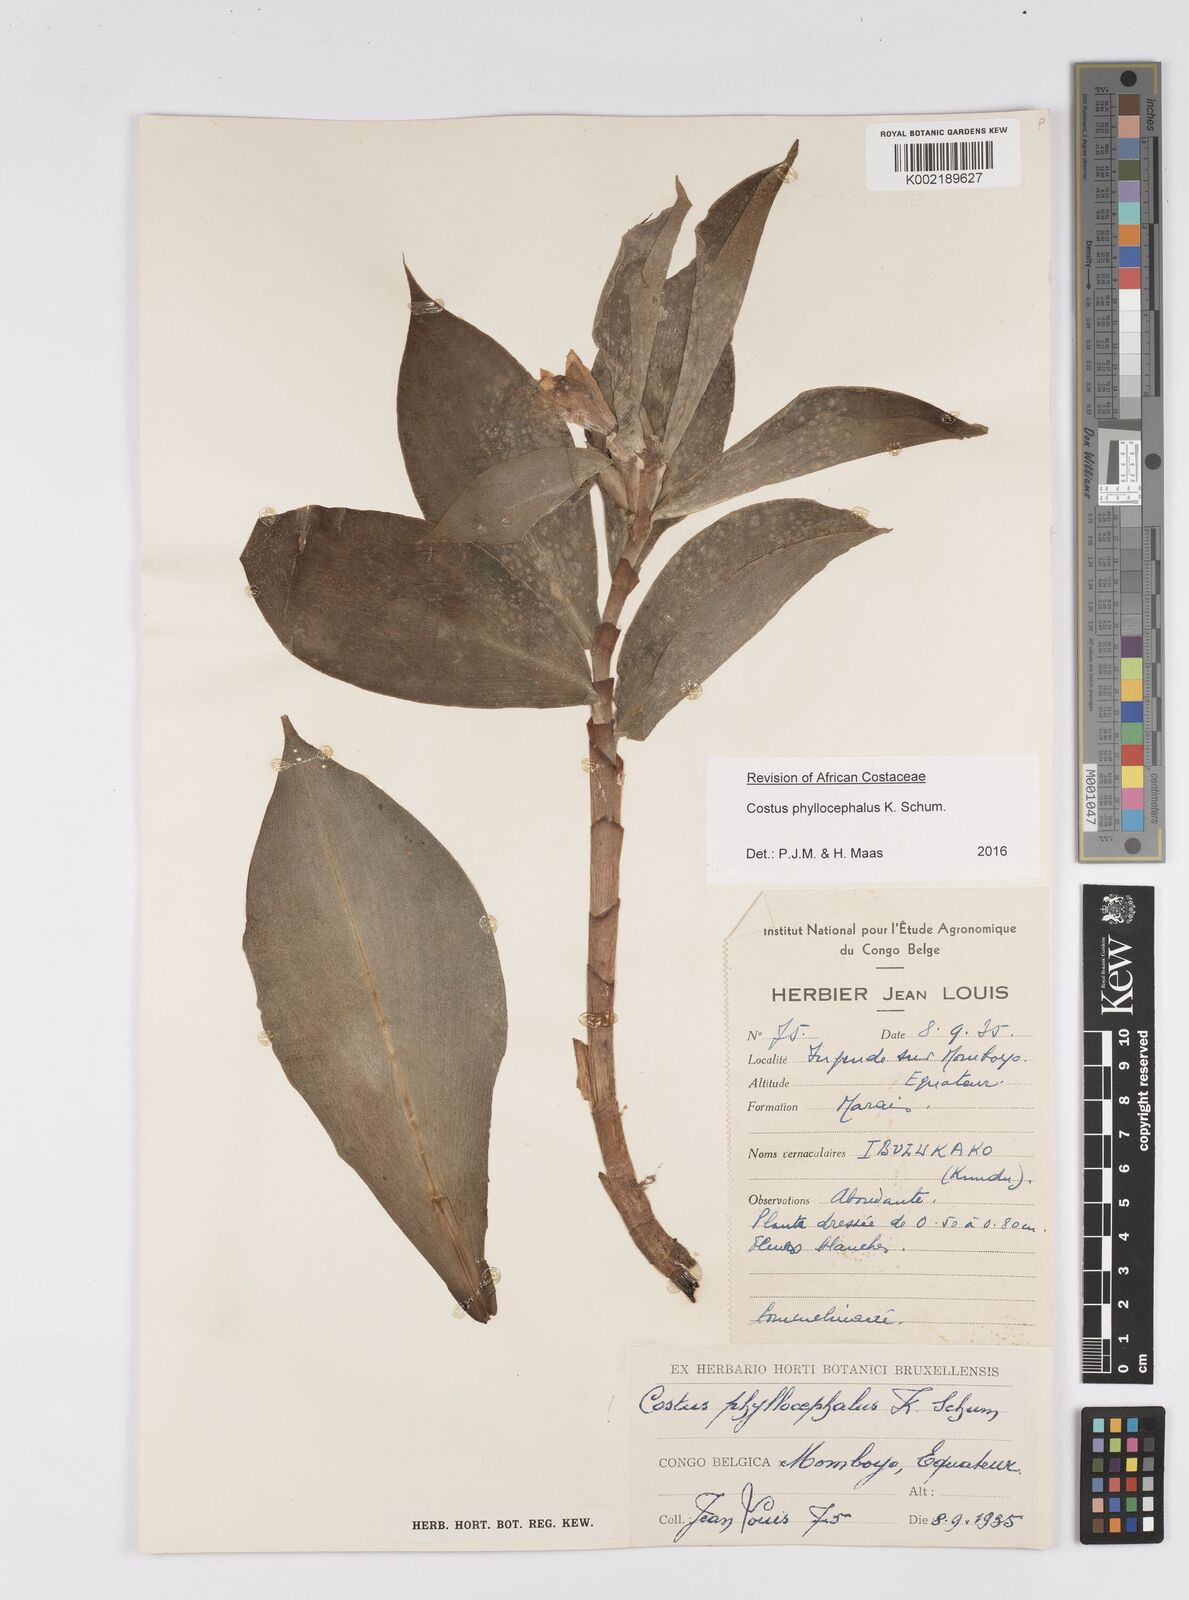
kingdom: Plantae
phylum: Tracheophyta
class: Liliopsida
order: Zingiberales
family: Costaceae
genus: Costus
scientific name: Costus phyllocephalus
